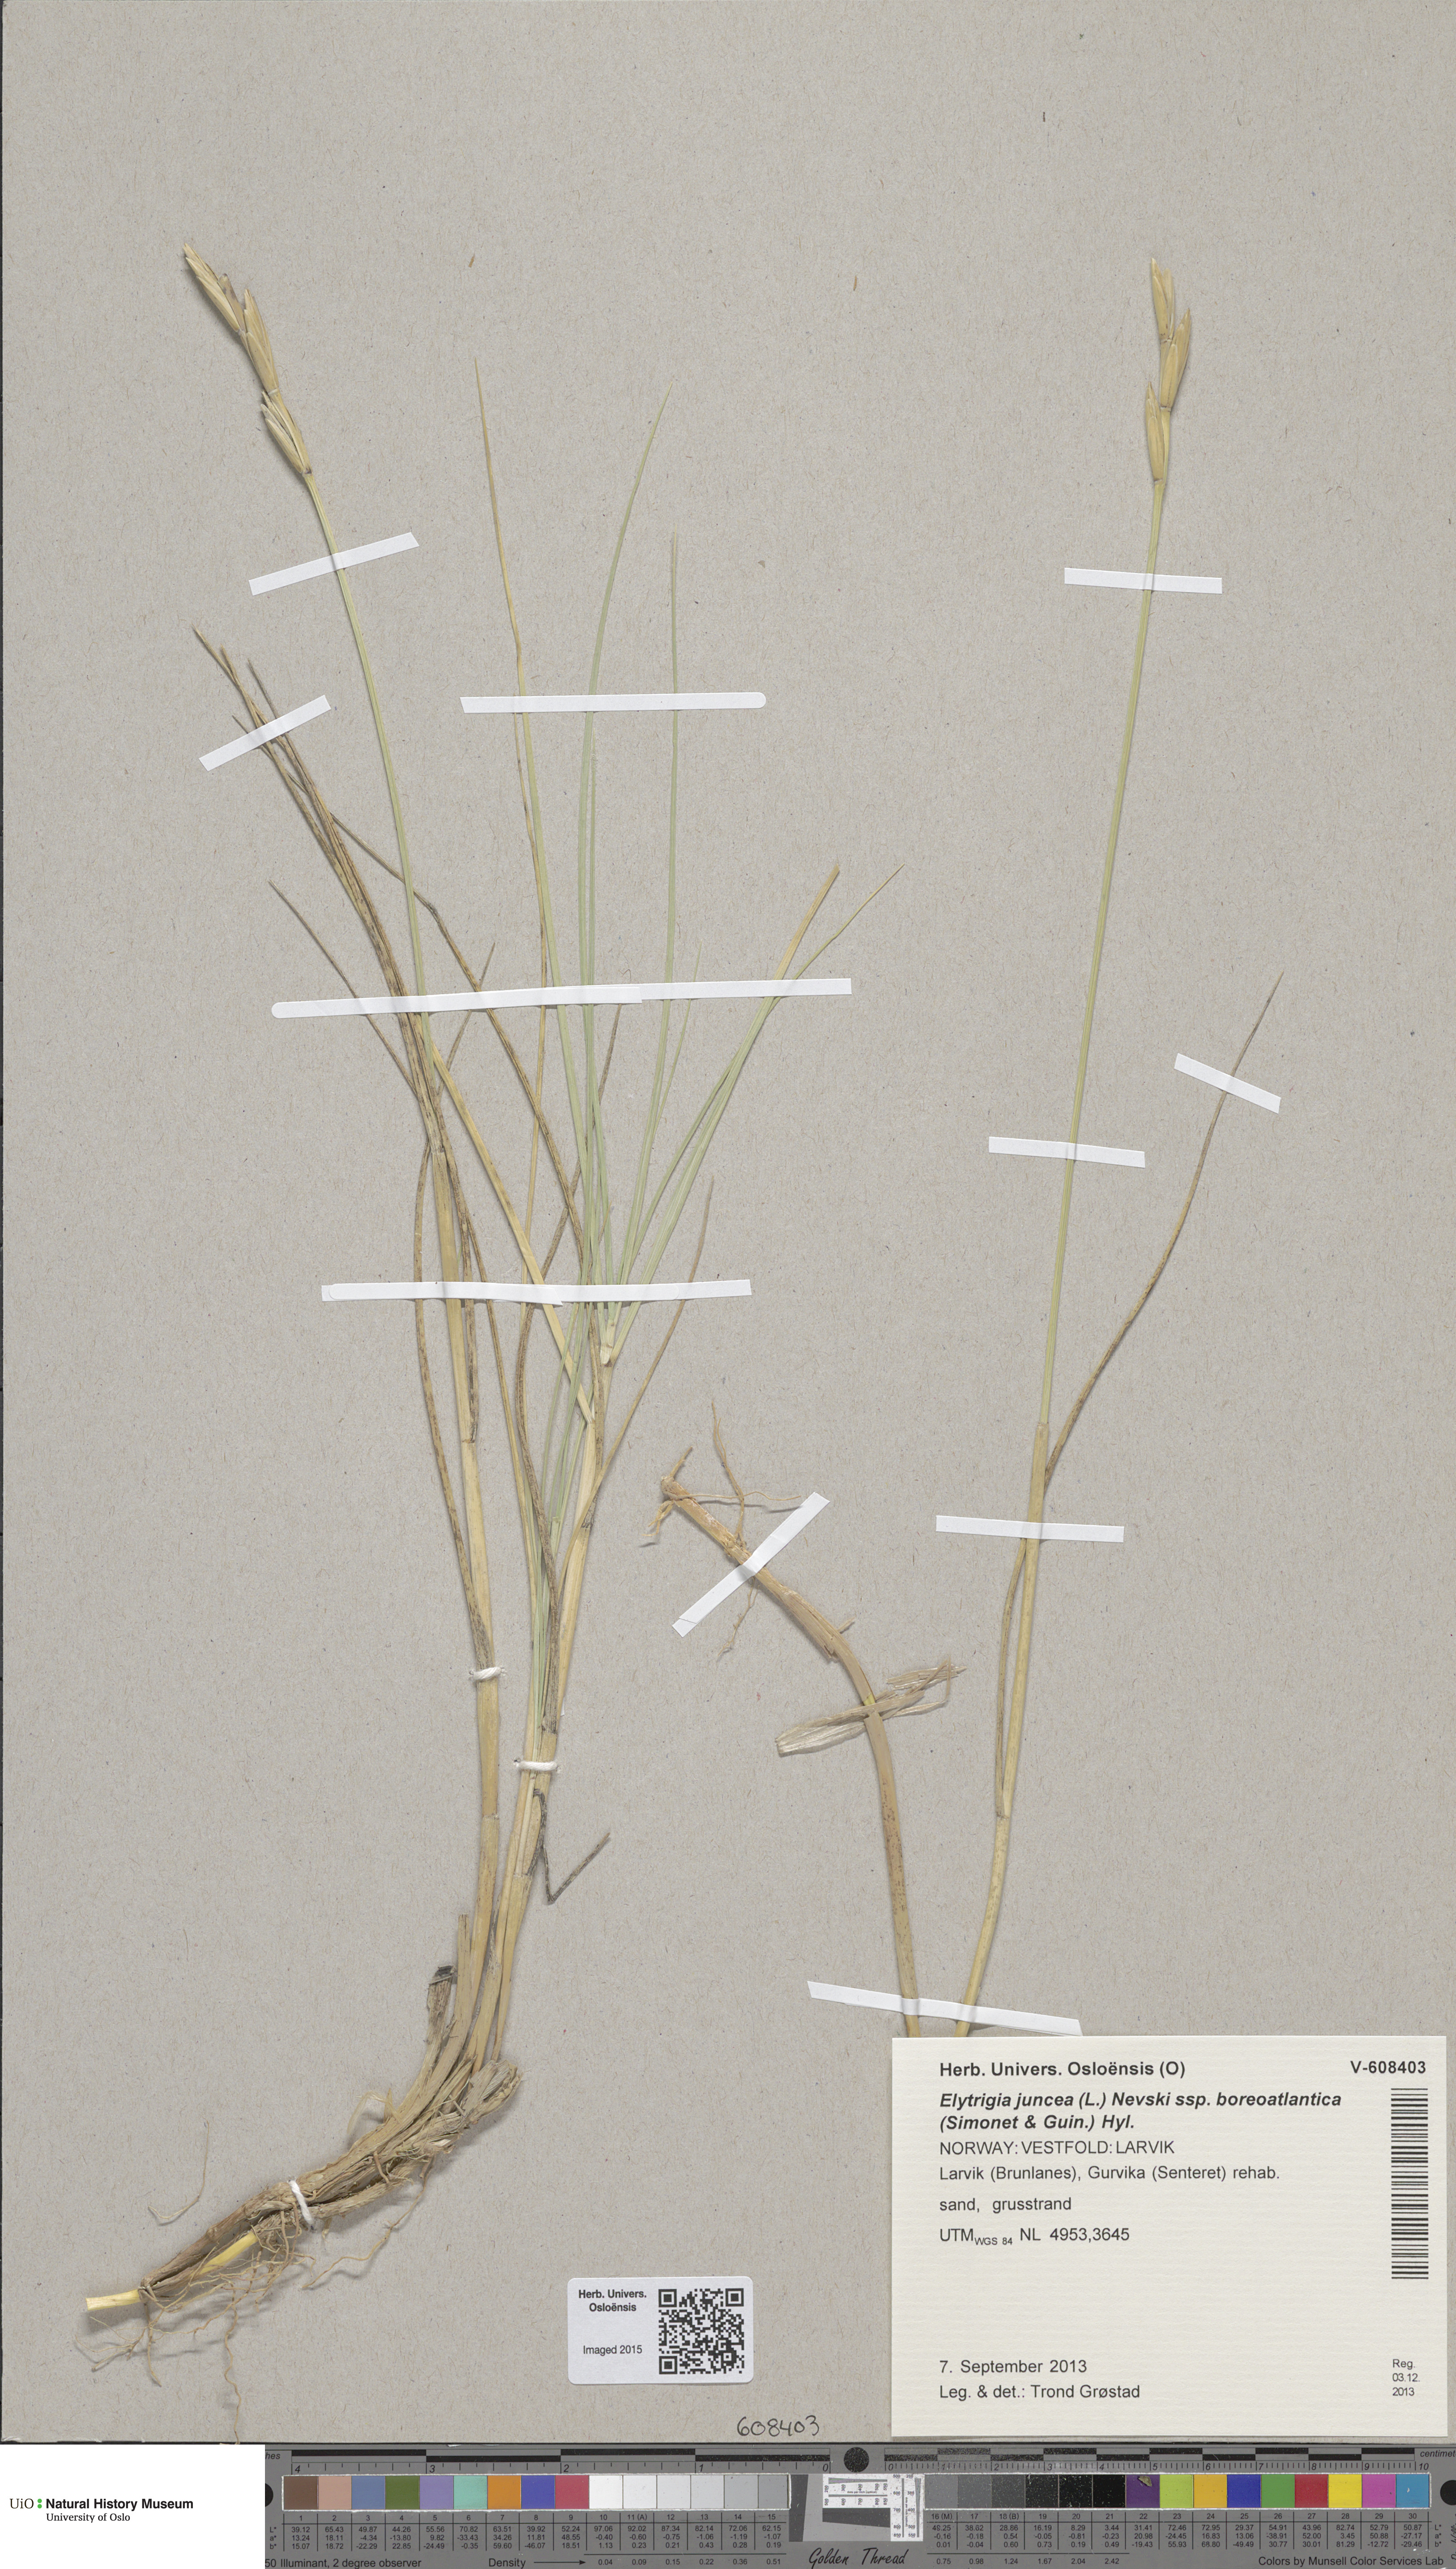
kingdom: Plantae
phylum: Tracheophyta
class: Liliopsida
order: Poales
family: Poaceae
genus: Thinopyrum
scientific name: Thinopyrum junceiforme
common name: Sea couch
